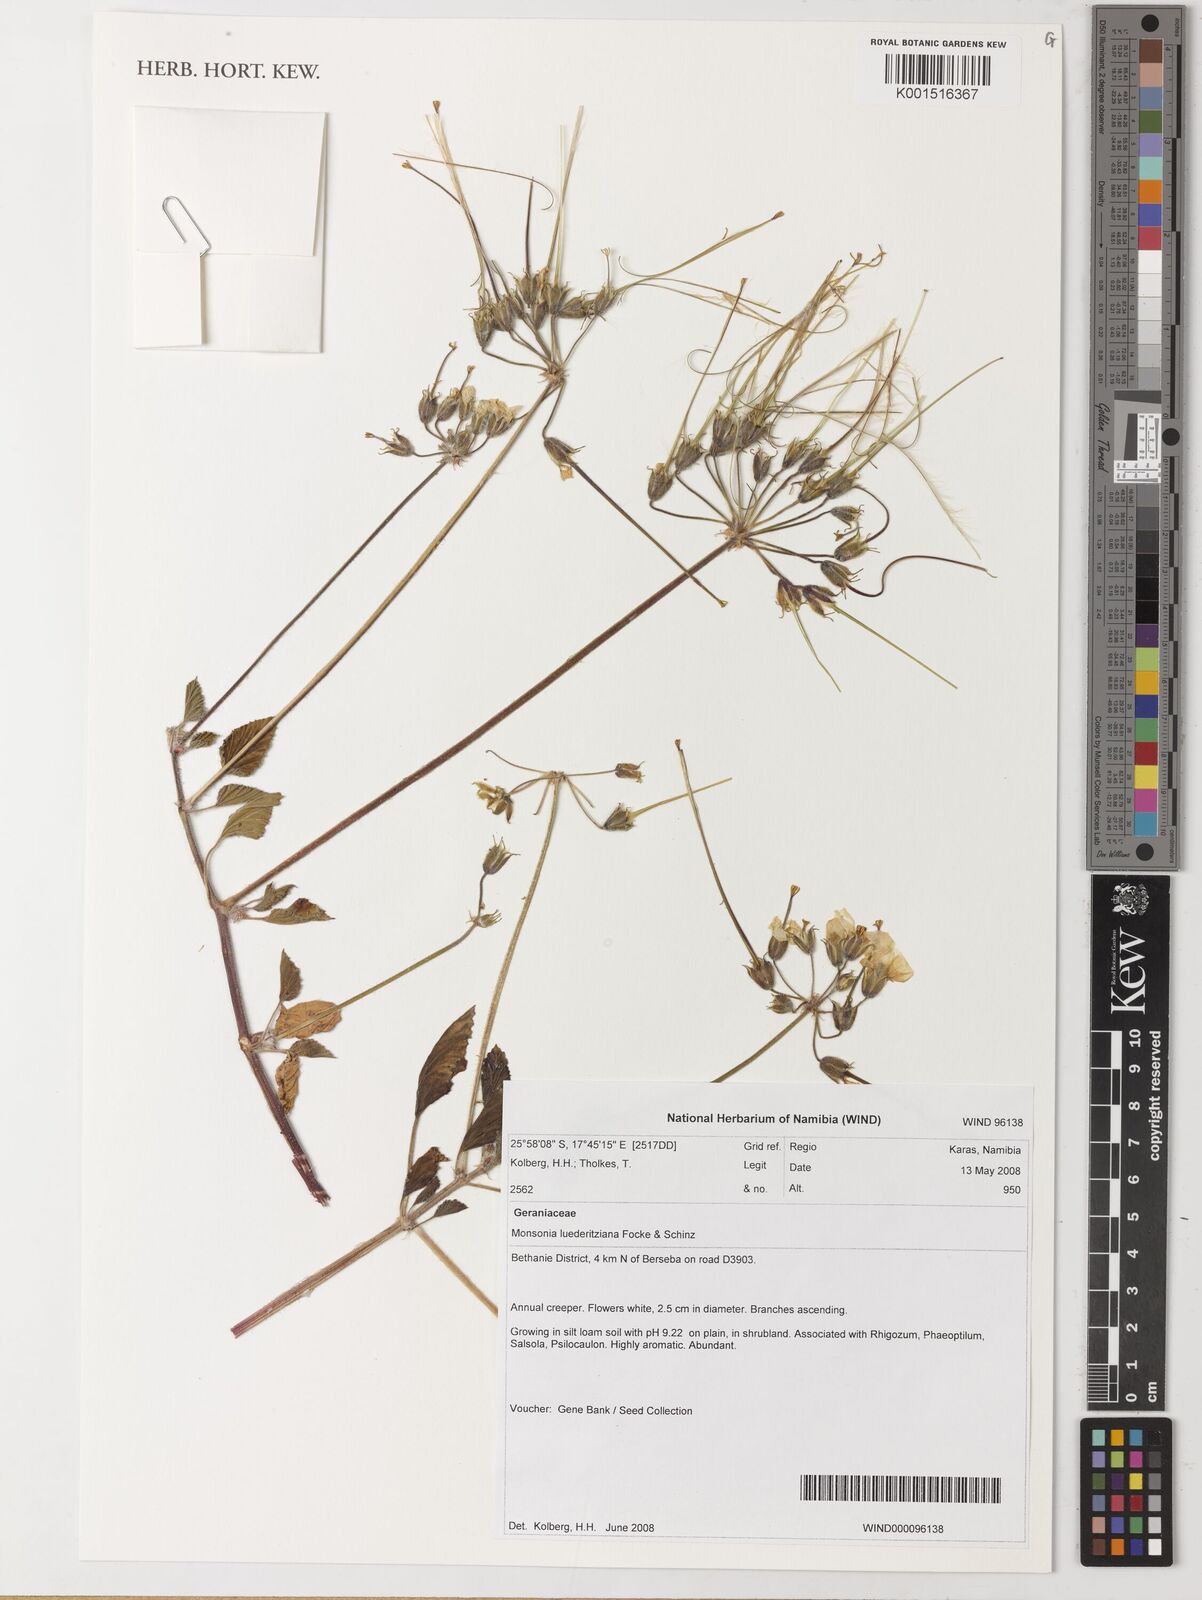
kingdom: Plantae
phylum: Tracheophyta
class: Magnoliopsida
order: Geraniales
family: Geraniaceae
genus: Monsonia
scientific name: Monsonia luederitziana
